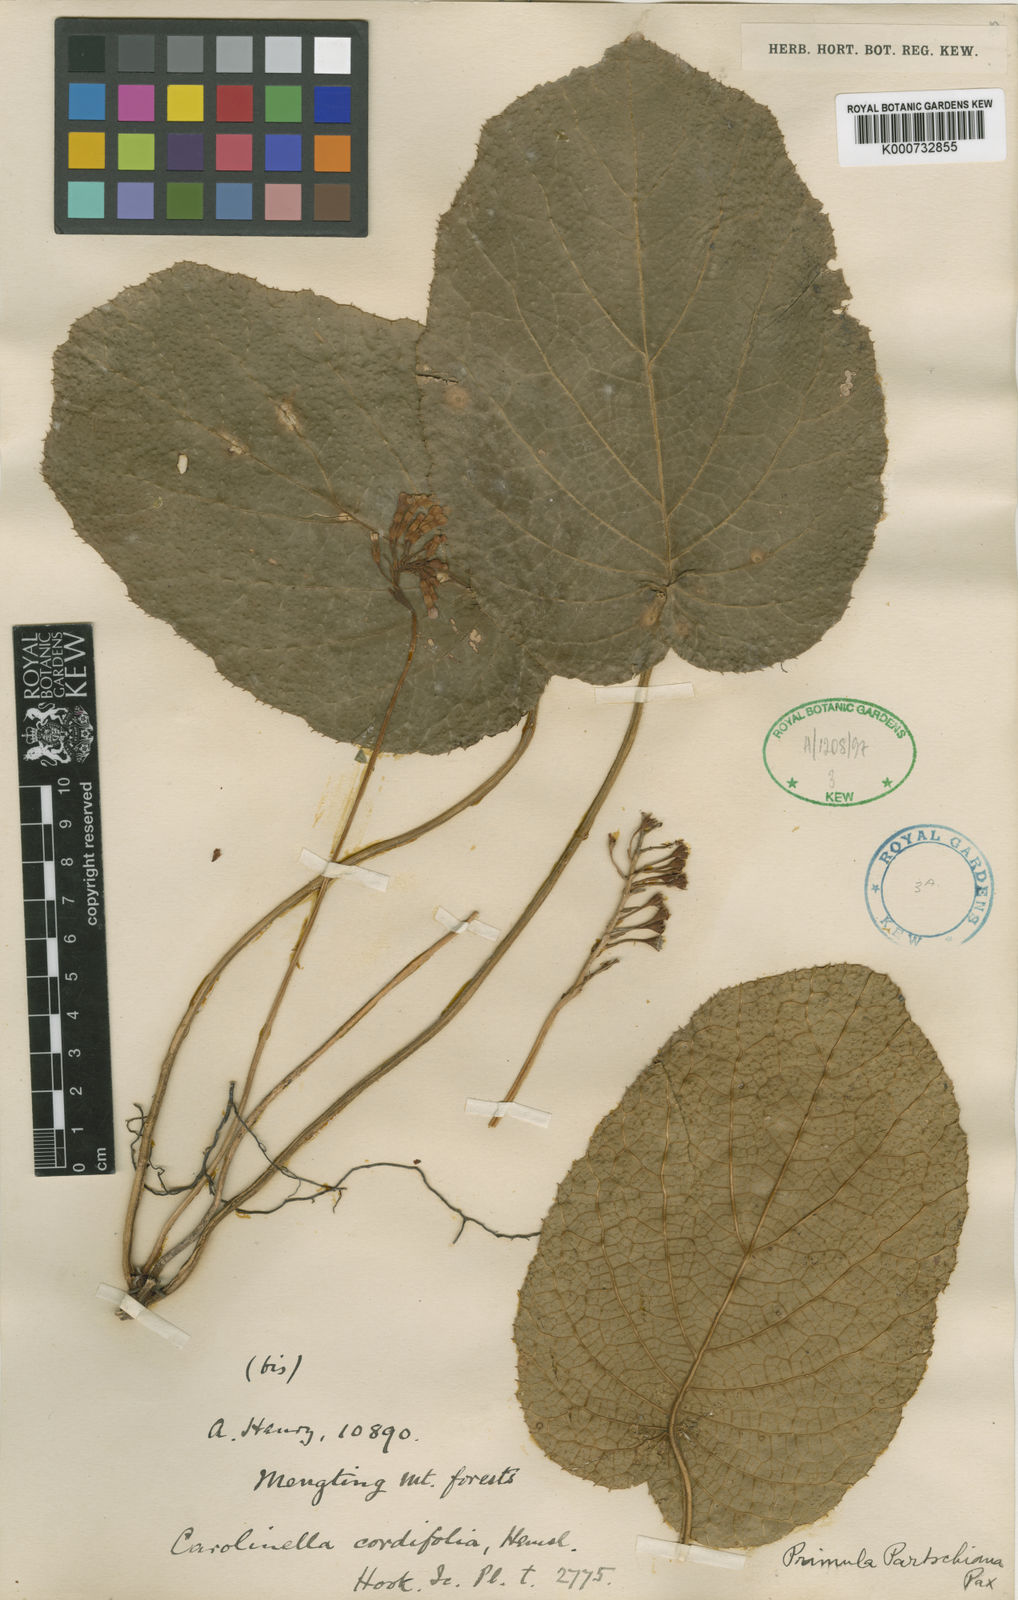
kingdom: Plantae
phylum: Tracheophyta
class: Magnoliopsida
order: Ericales
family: Primulaceae
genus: Primula
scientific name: Primula partschiana
